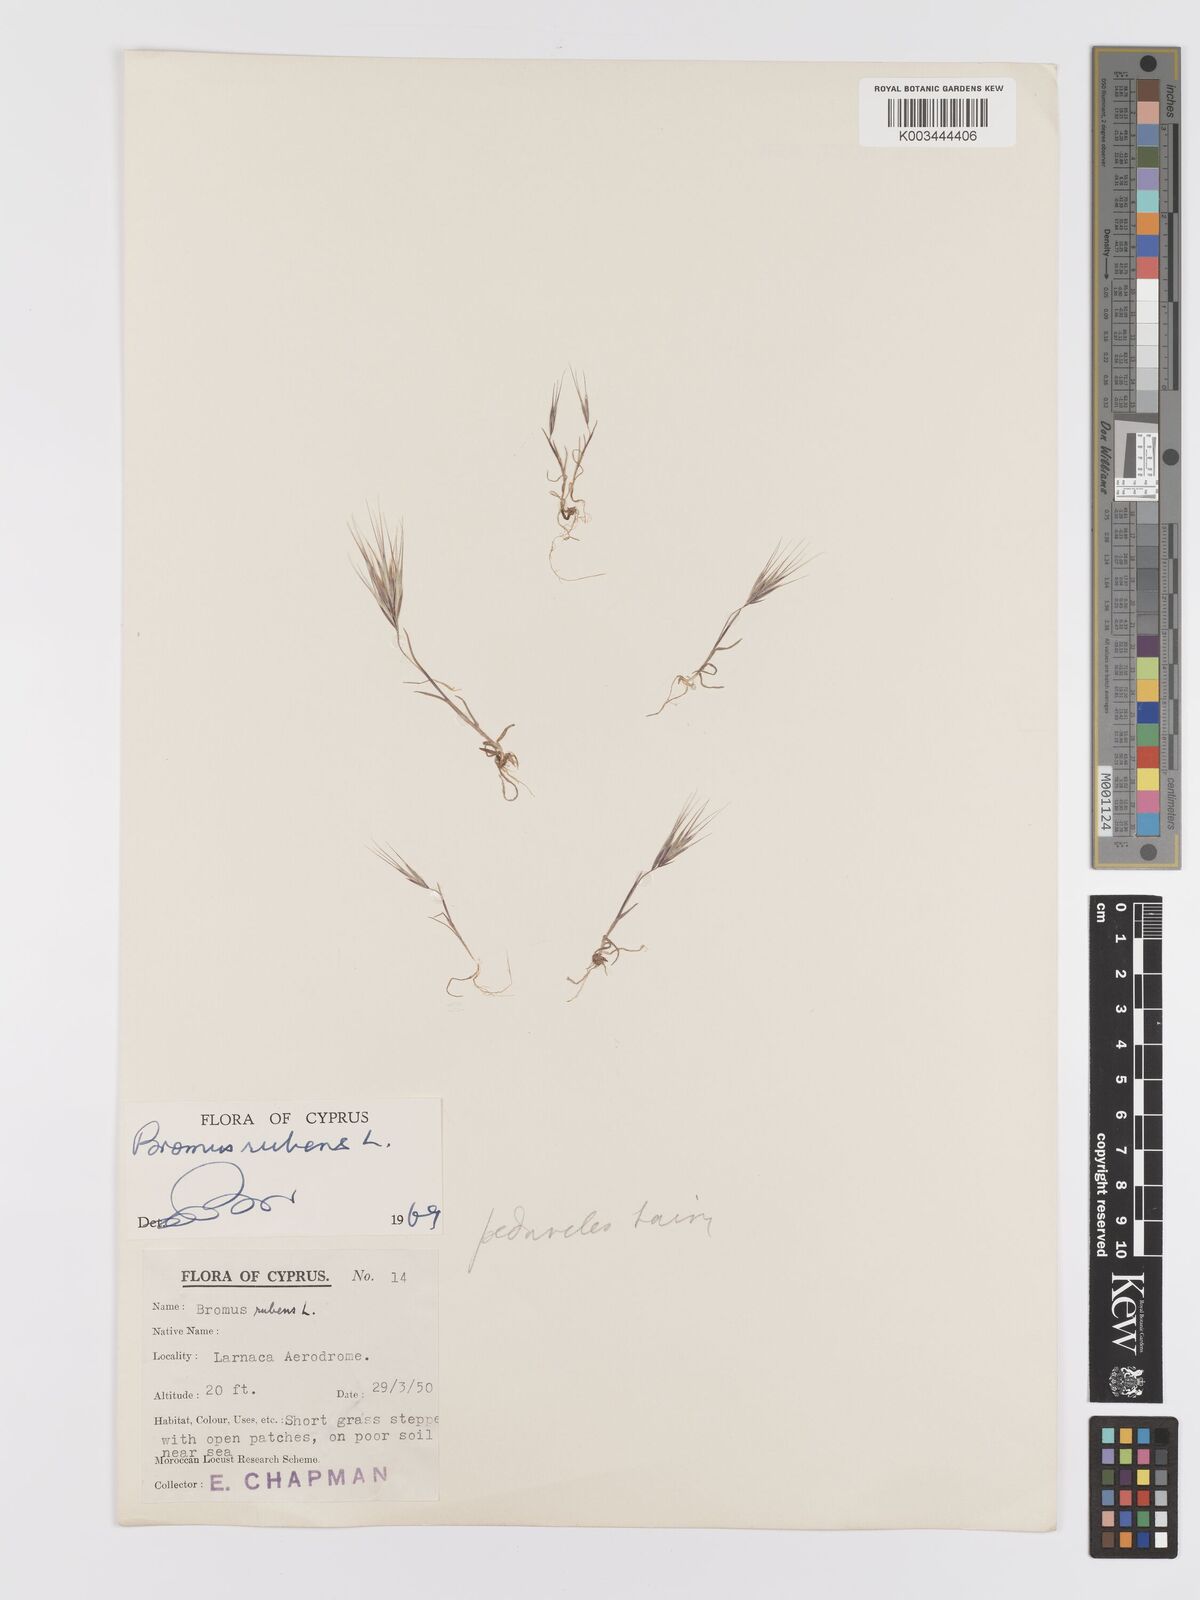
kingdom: Plantae
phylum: Tracheophyta
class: Liliopsida
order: Poales
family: Poaceae
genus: Bromus
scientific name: Bromus rubens
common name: Red brome
